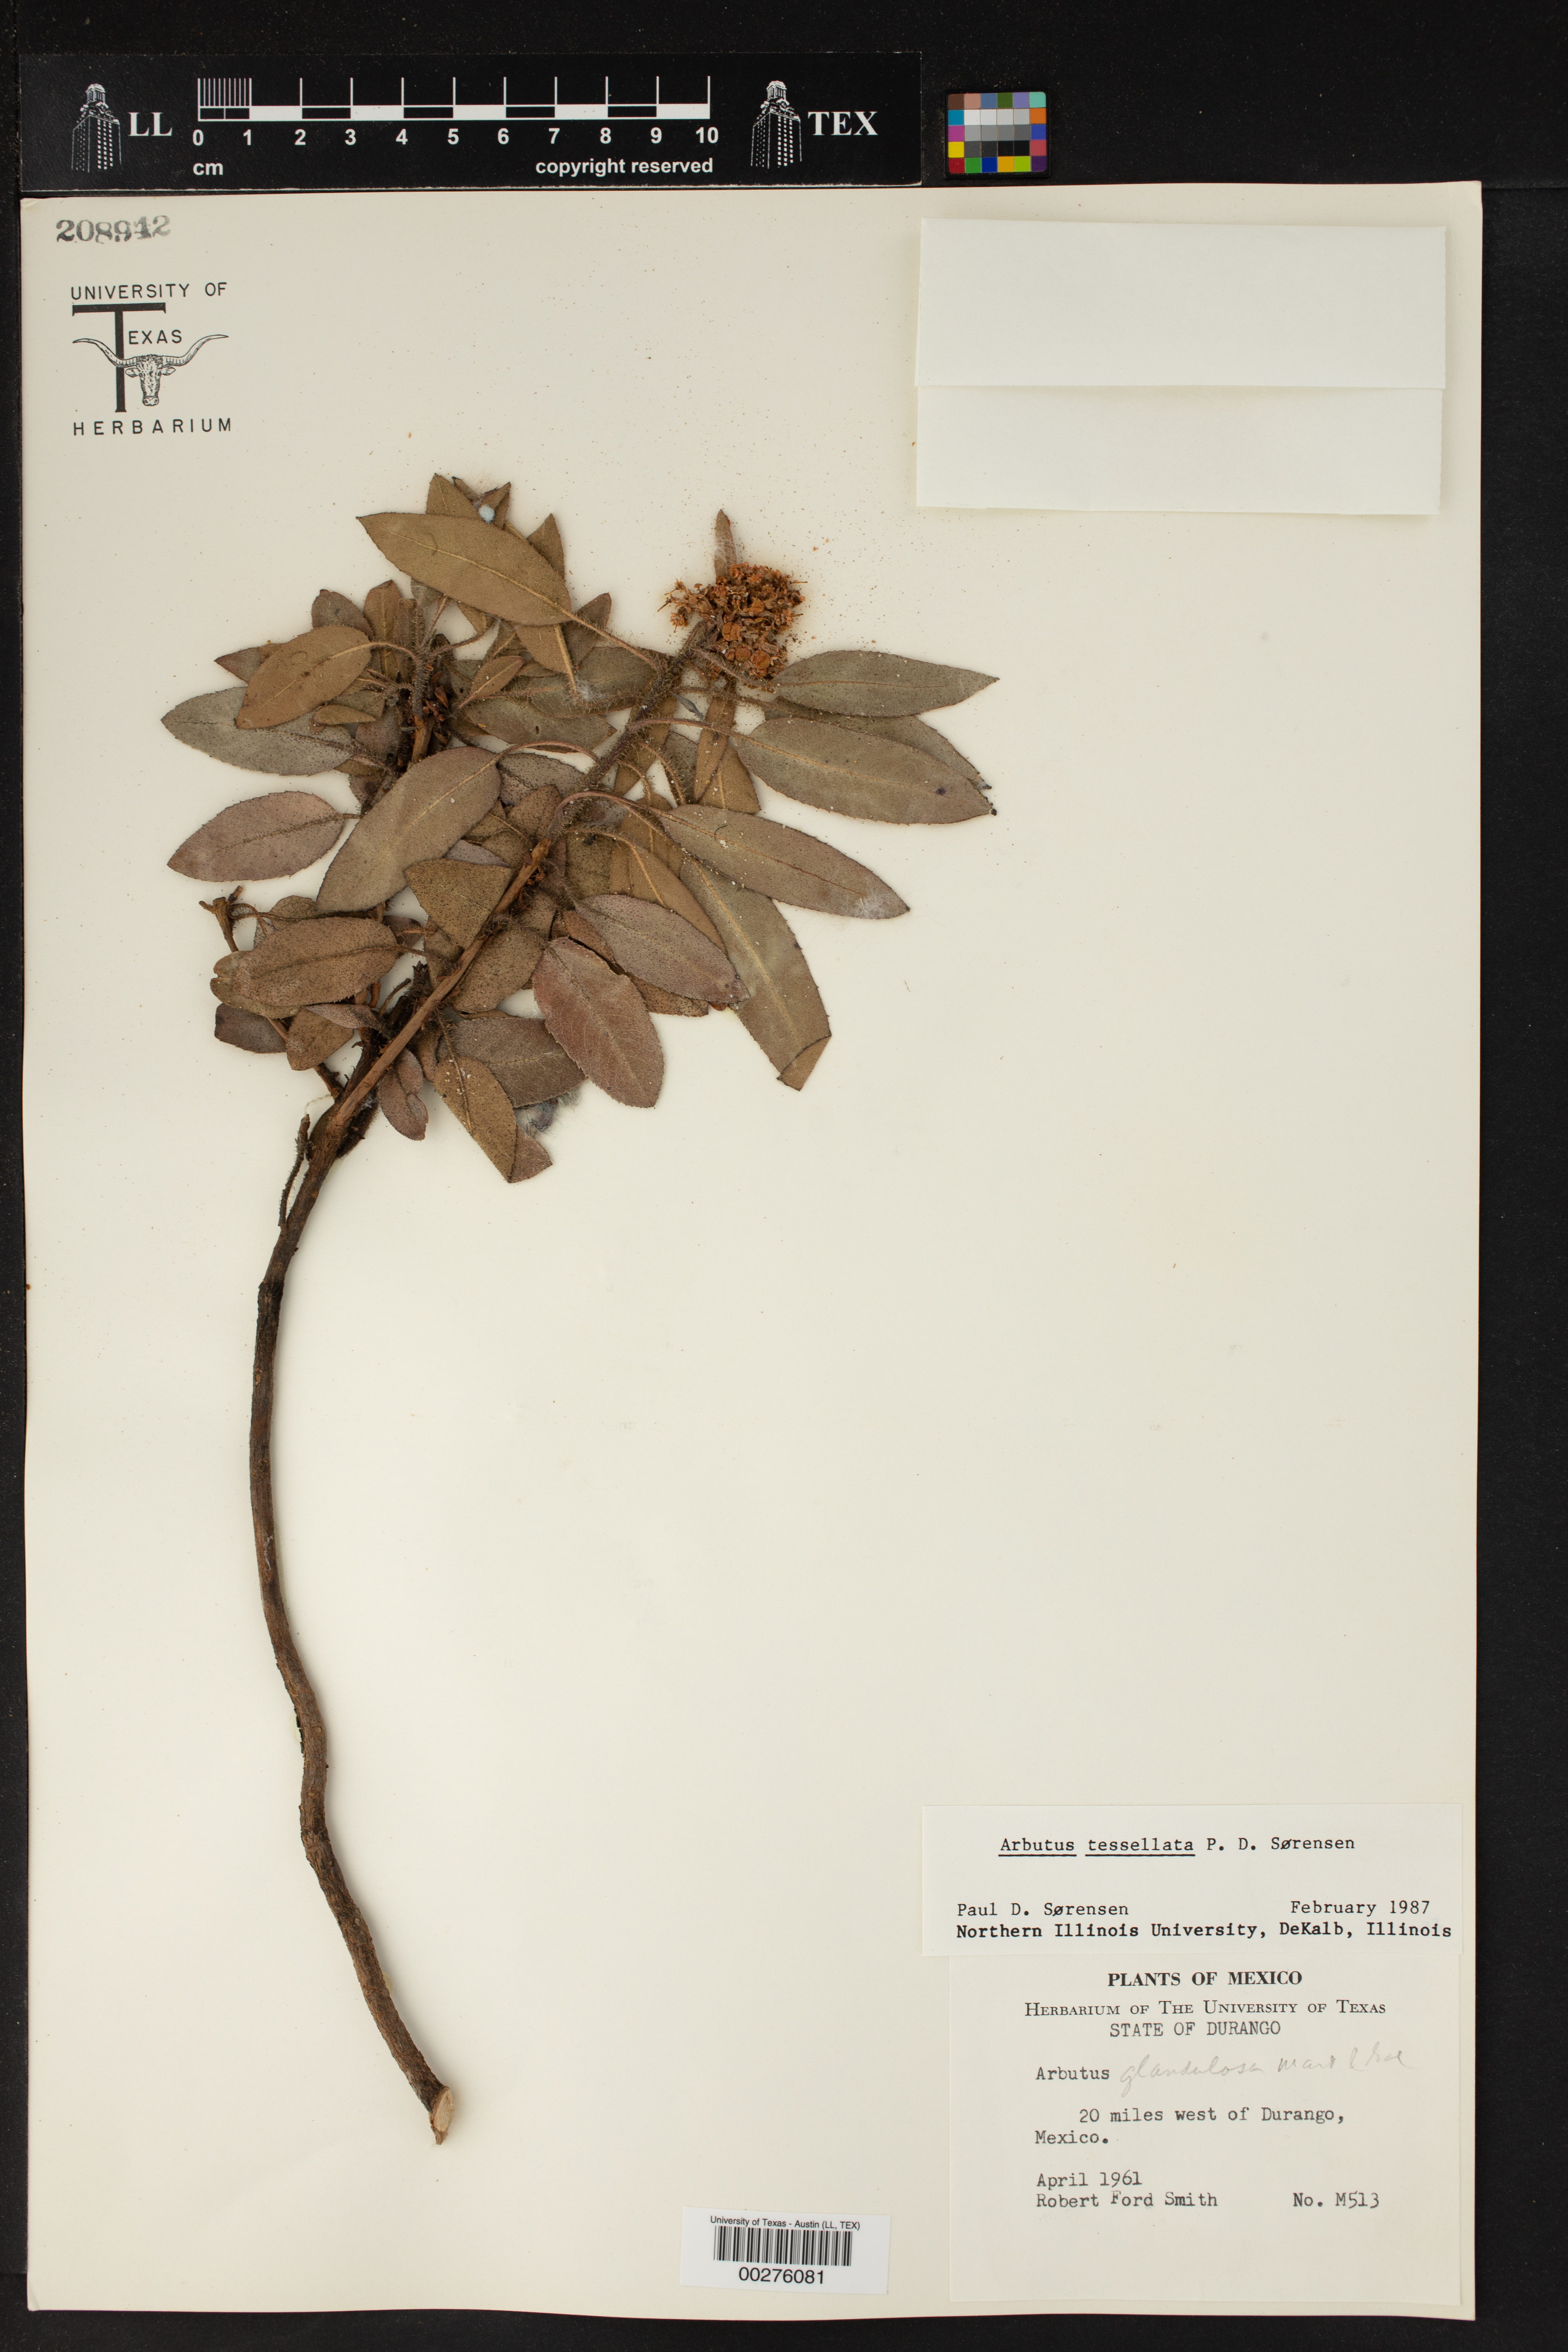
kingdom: Plantae
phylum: Tracheophyta
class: Magnoliopsida
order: Ericales
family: Ericaceae
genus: Arbutus
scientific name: Arbutus tessellata
